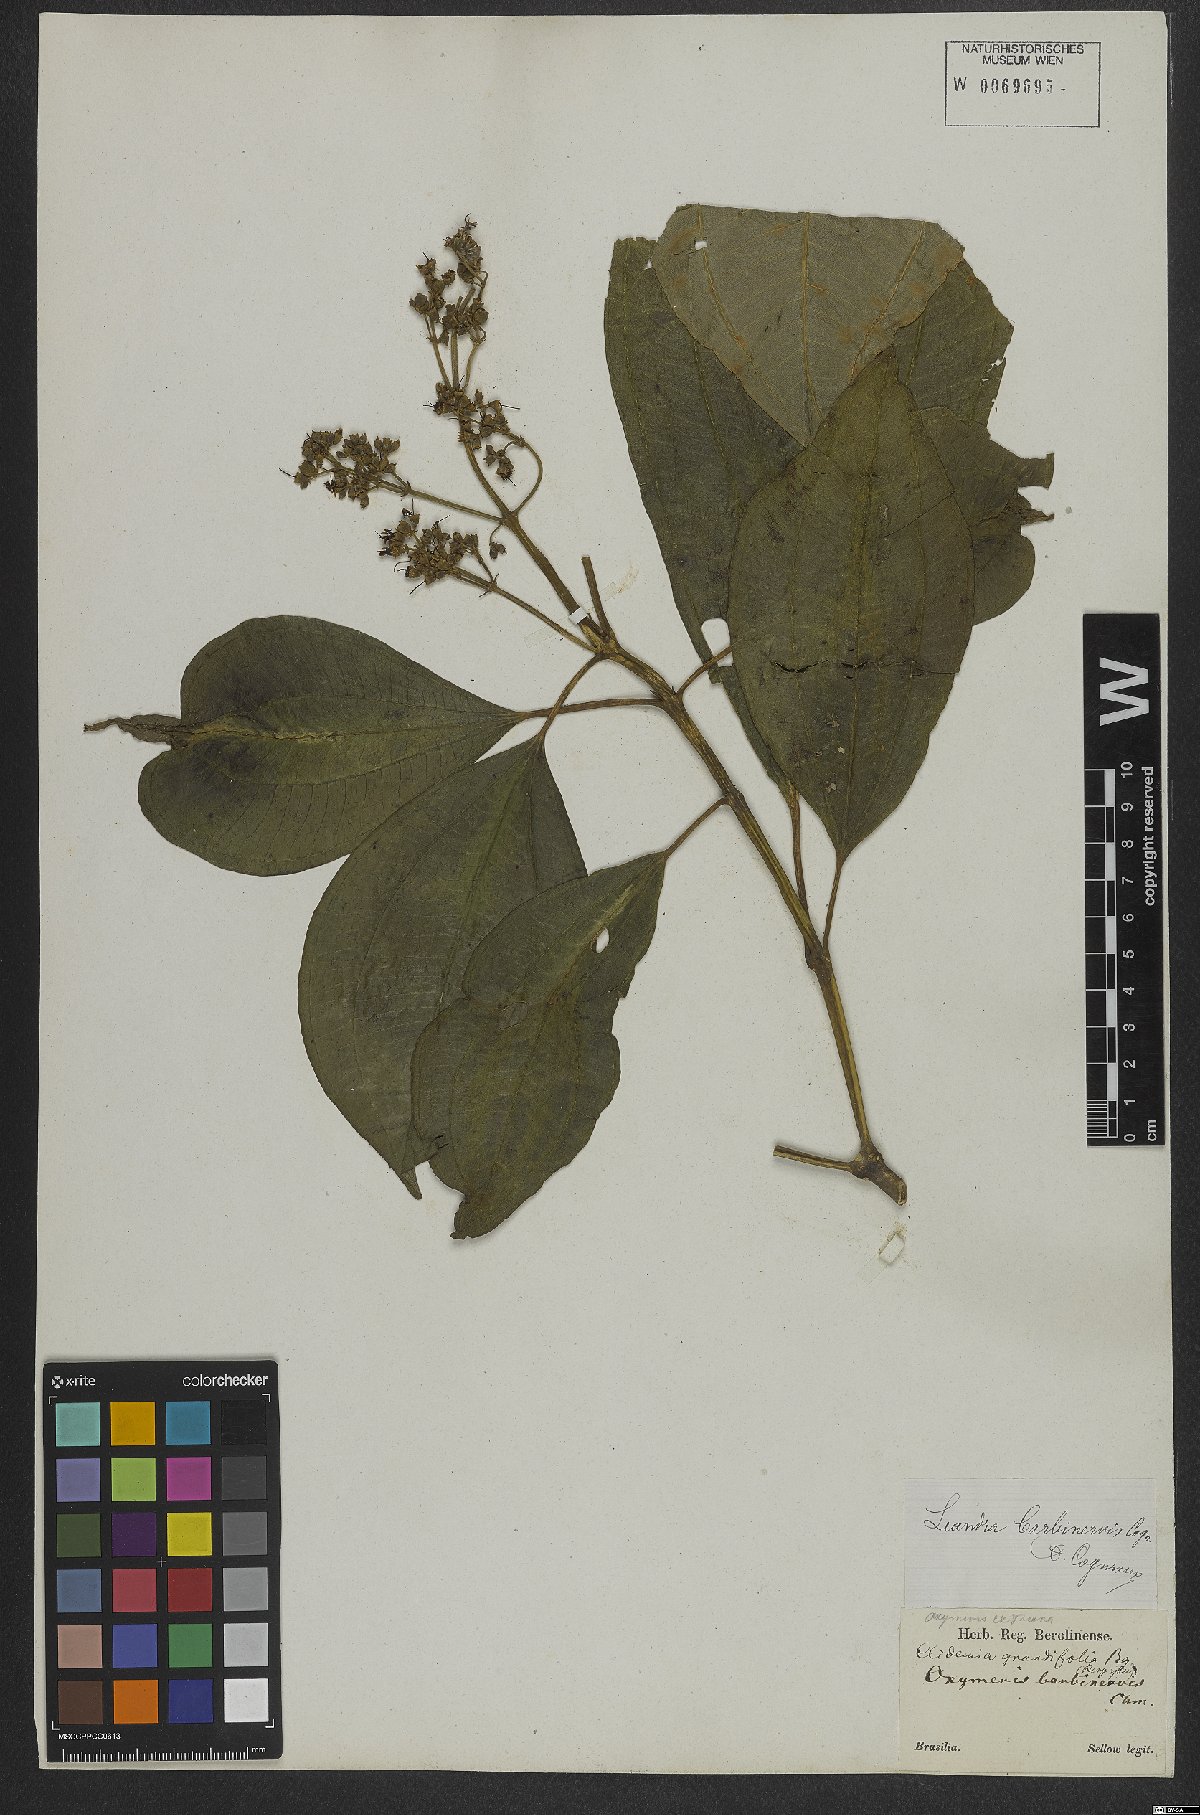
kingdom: Plantae
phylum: Tracheophyta
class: Magnoliopsida
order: Myrtales
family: Melastomataceae
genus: Miconia
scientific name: Miconia trauninensis
